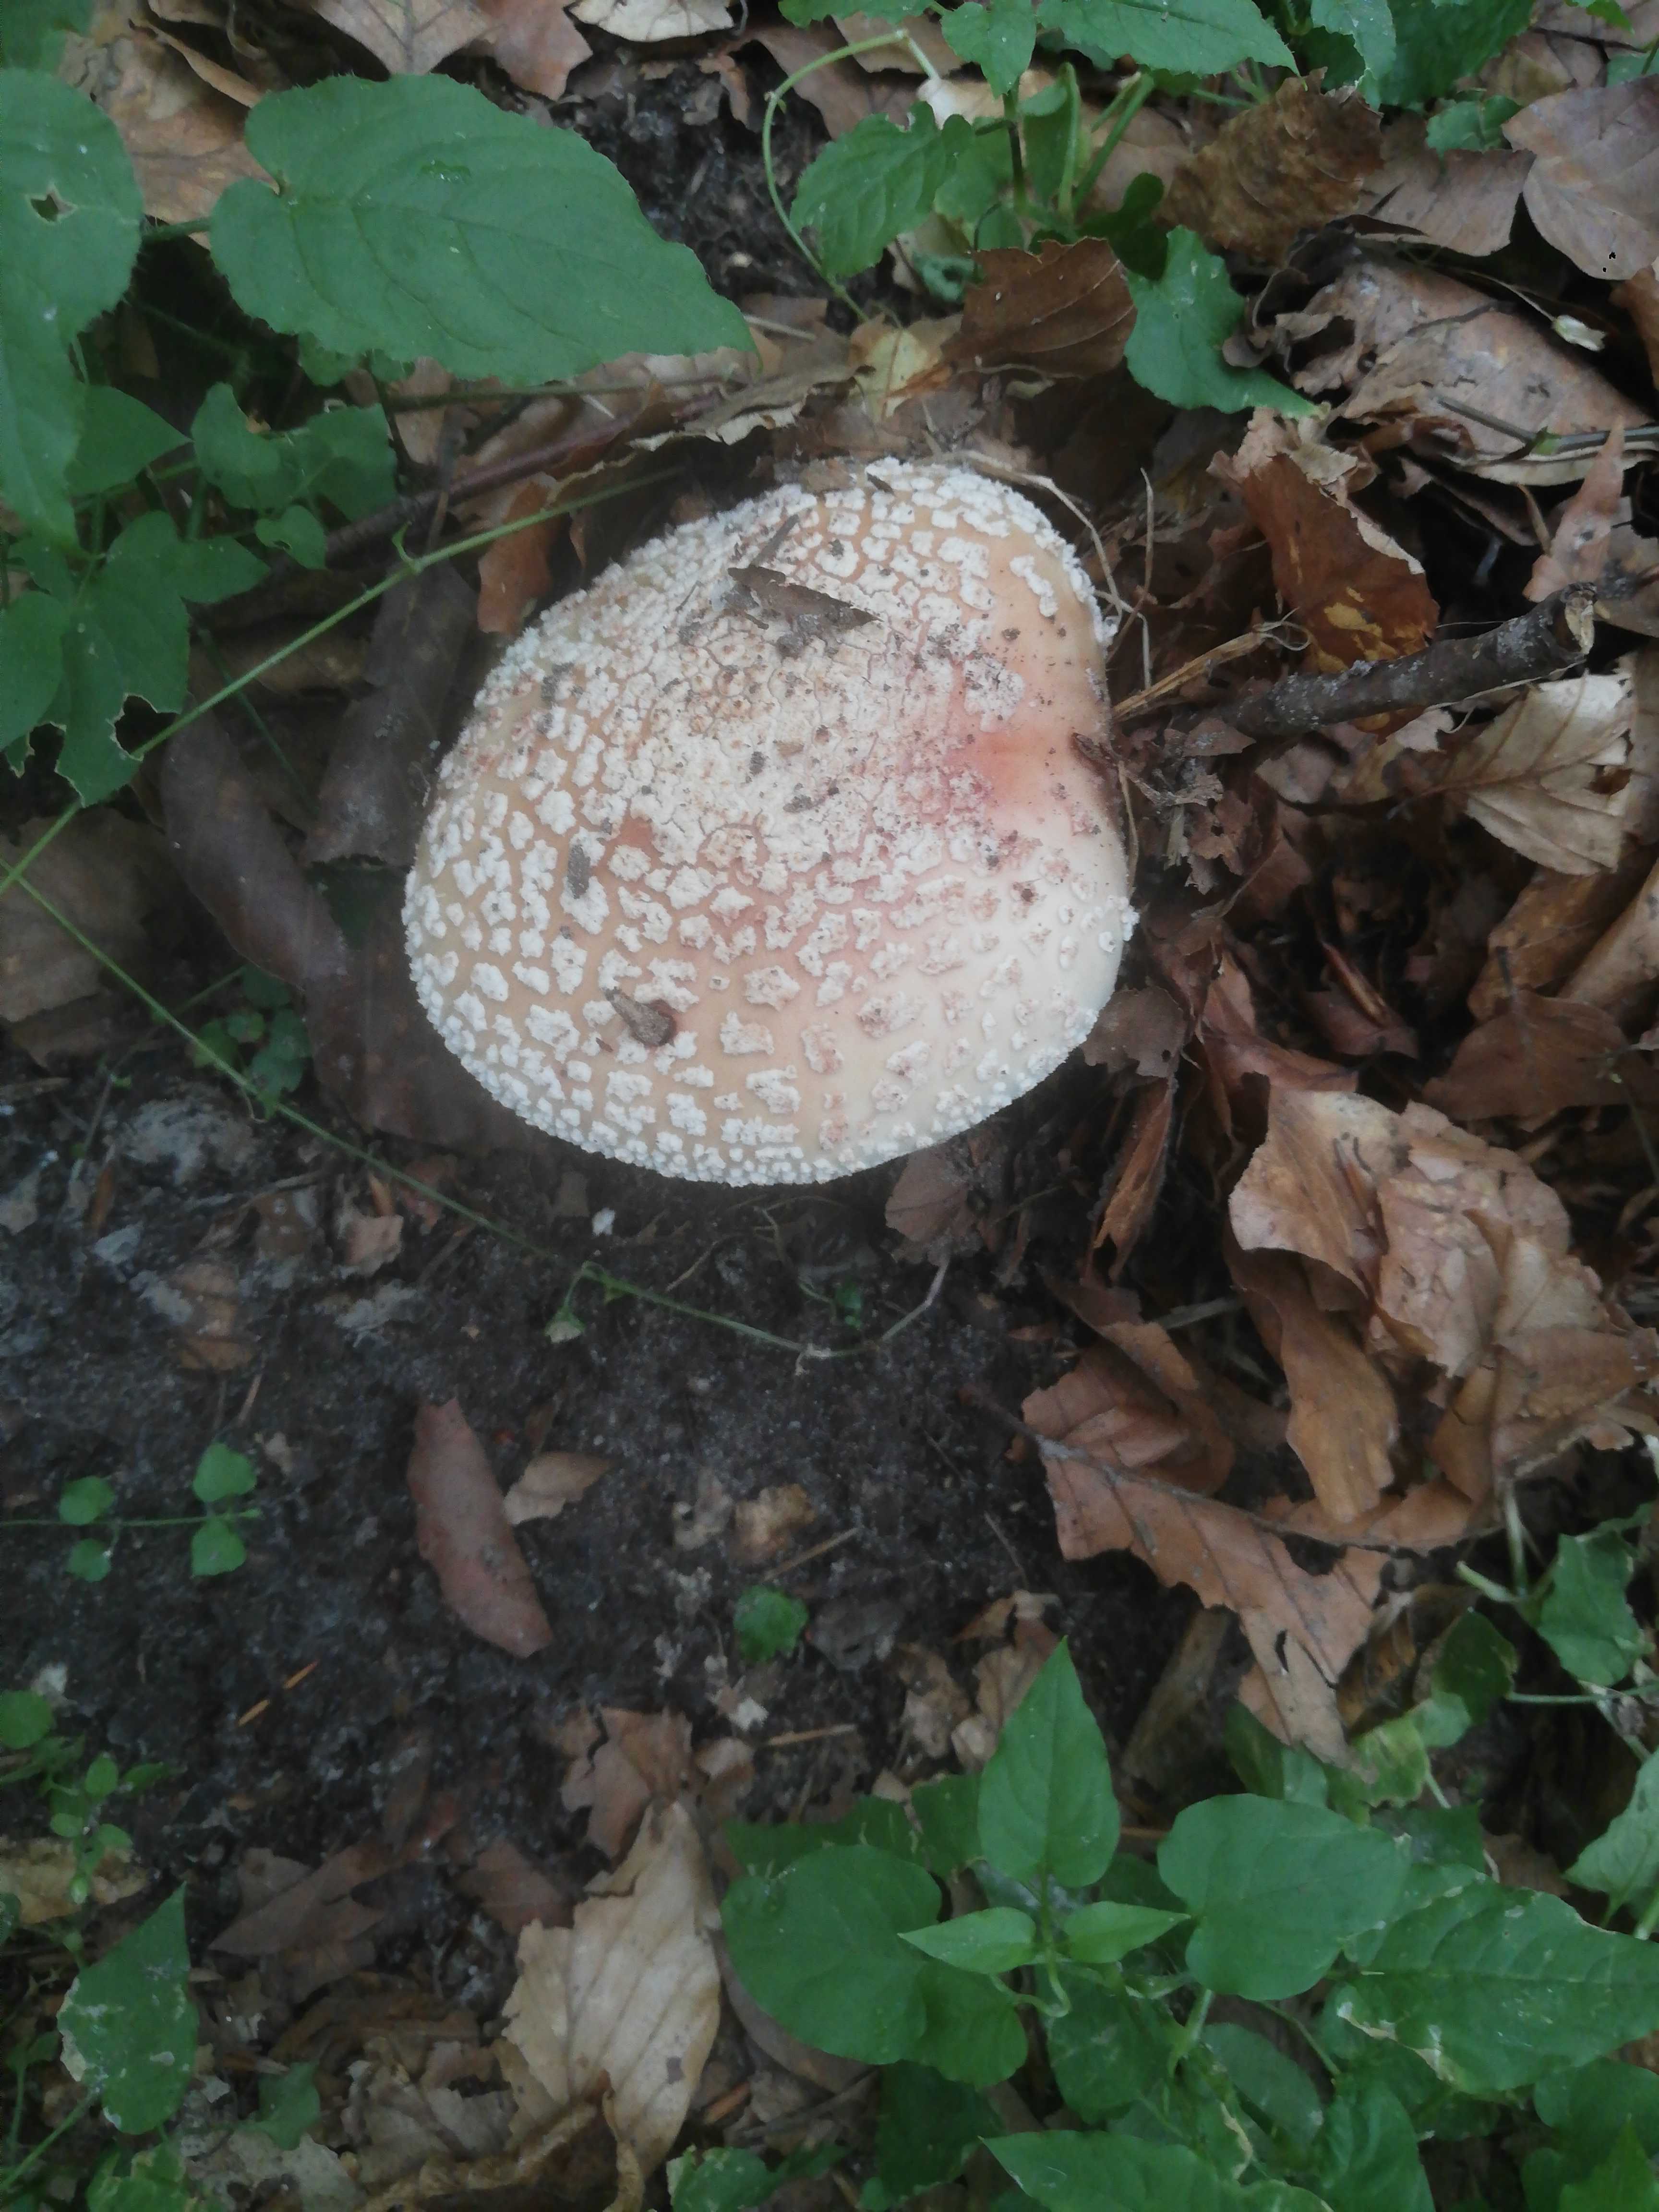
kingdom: Fungi
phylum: Basidiomycota
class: Agaricomycetes
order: Agaricales
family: Amanitaceae
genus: Amanita
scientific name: Amanita rubescens
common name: rødmende fluesvamp
